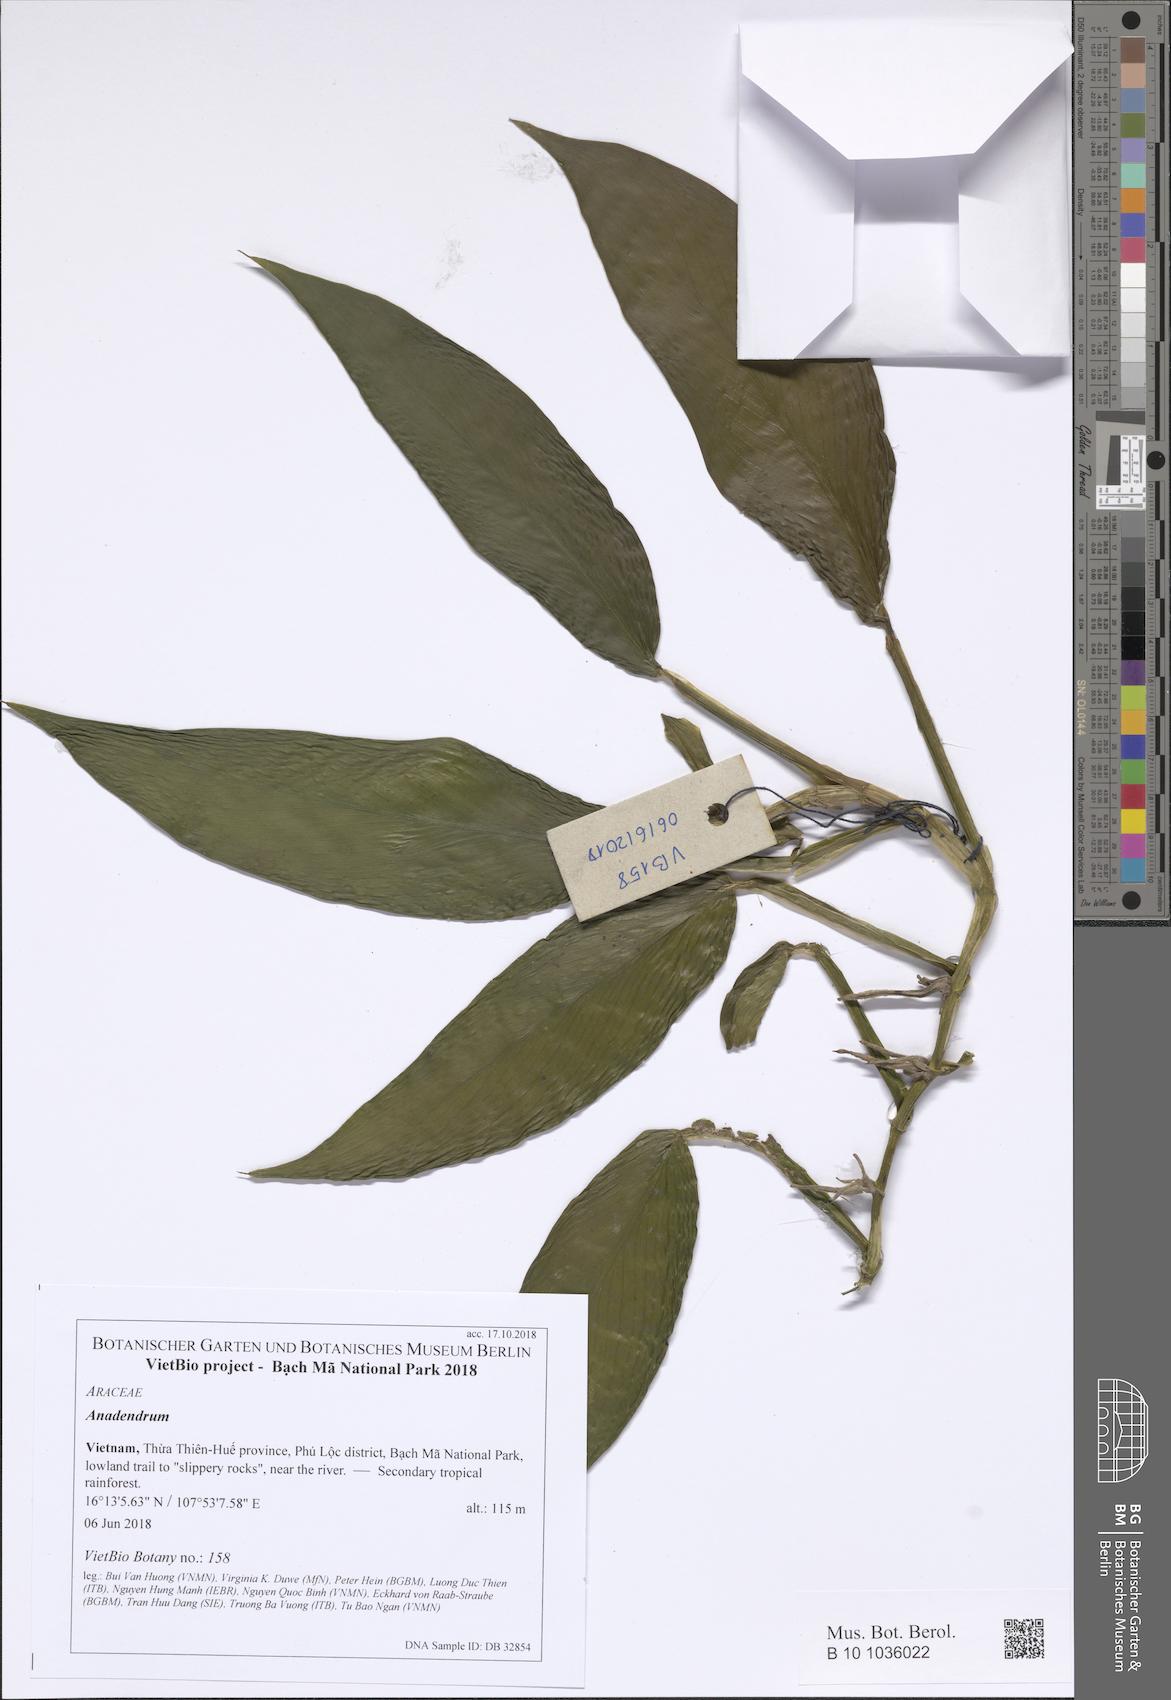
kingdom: Plantae
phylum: Tracheophyta
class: Liliopsida
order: Alismatales
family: Araceae
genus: Scindapsus
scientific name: Scindapsus hederaceus
